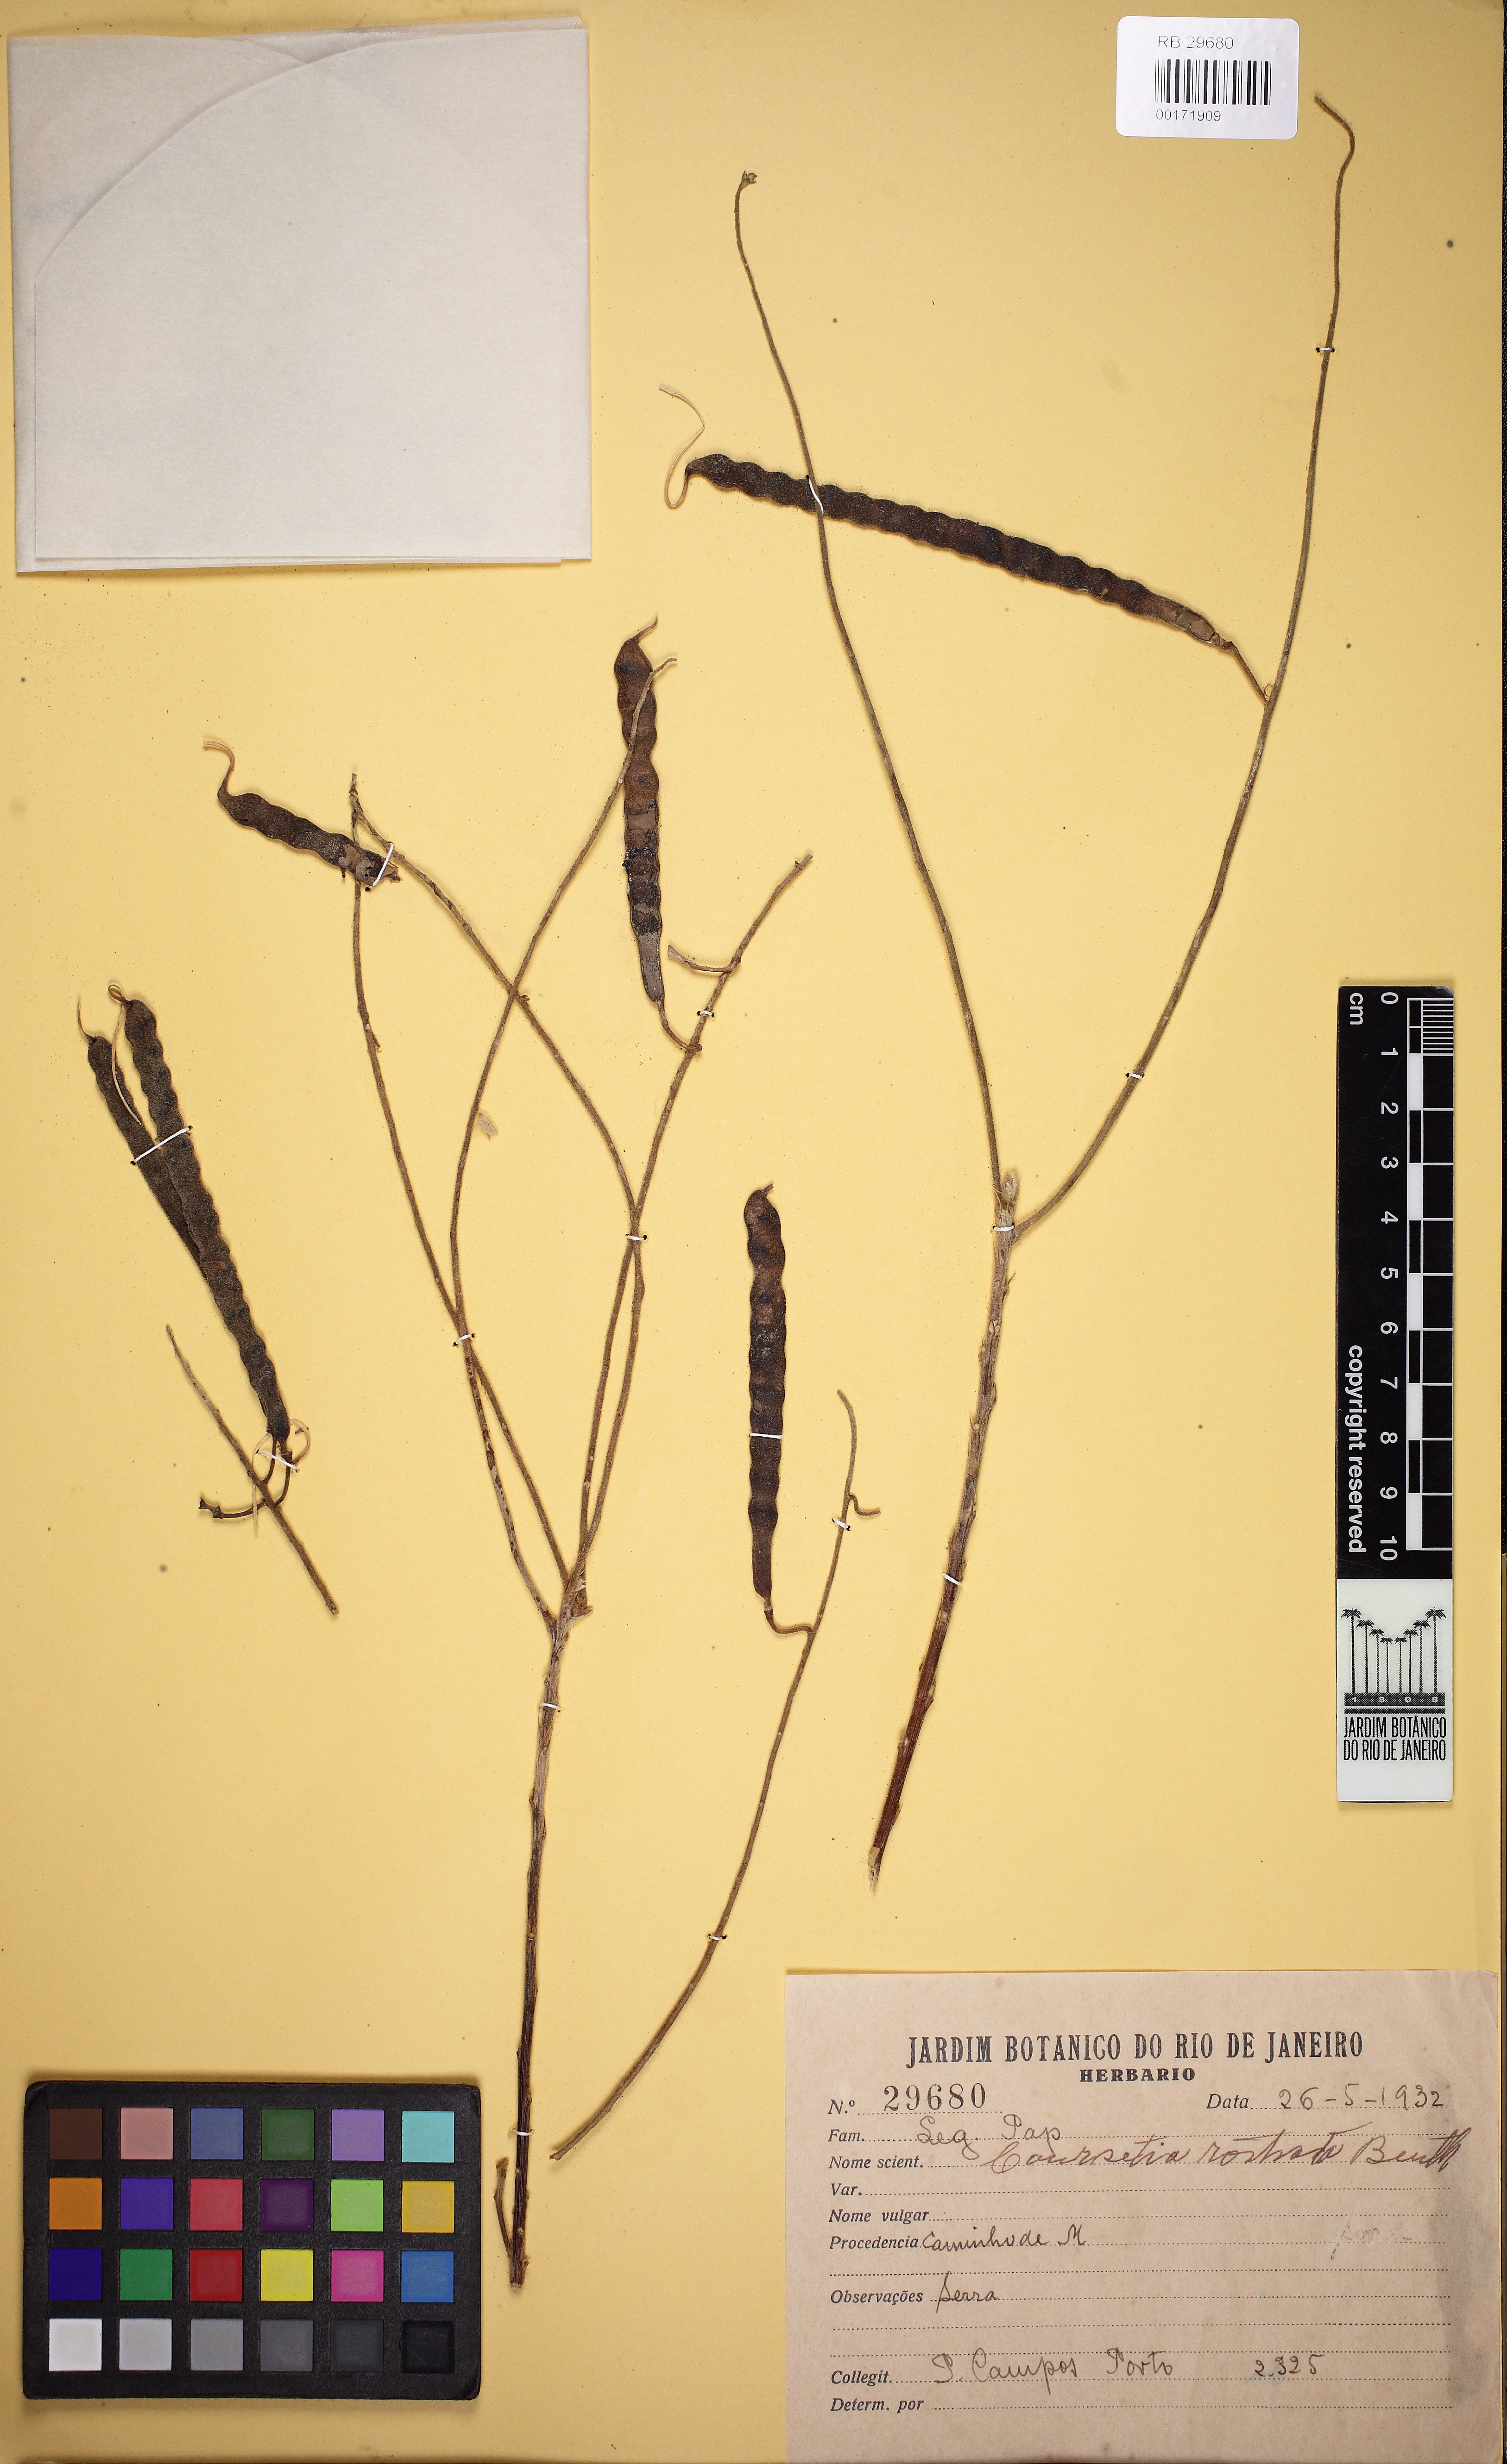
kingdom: Plantae
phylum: Tracheophyta
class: Magnoliopsida
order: Fabales
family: Fabaceae
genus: Coursetia
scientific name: Coursetia rostrata
